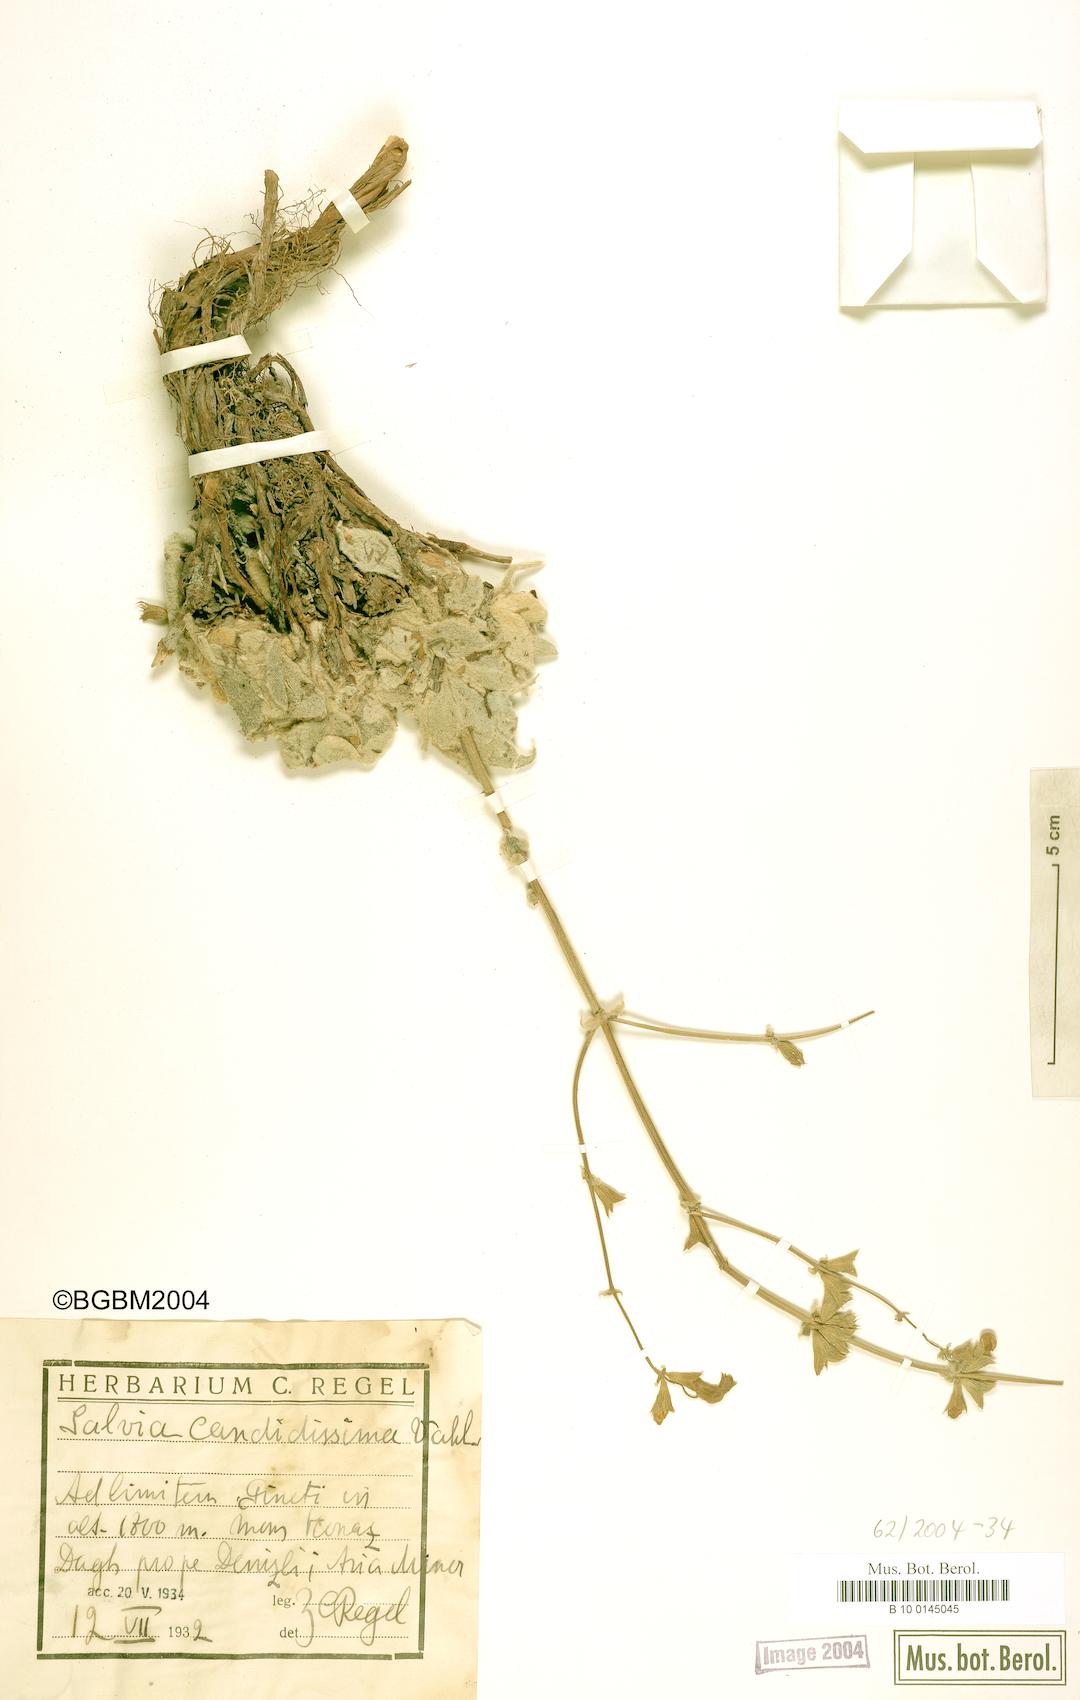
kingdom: Plantae
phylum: Tracheophyta
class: Magnoliopsida
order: Lamiales
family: Lamiaceae
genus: Salvia
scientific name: Salvia candidissima
